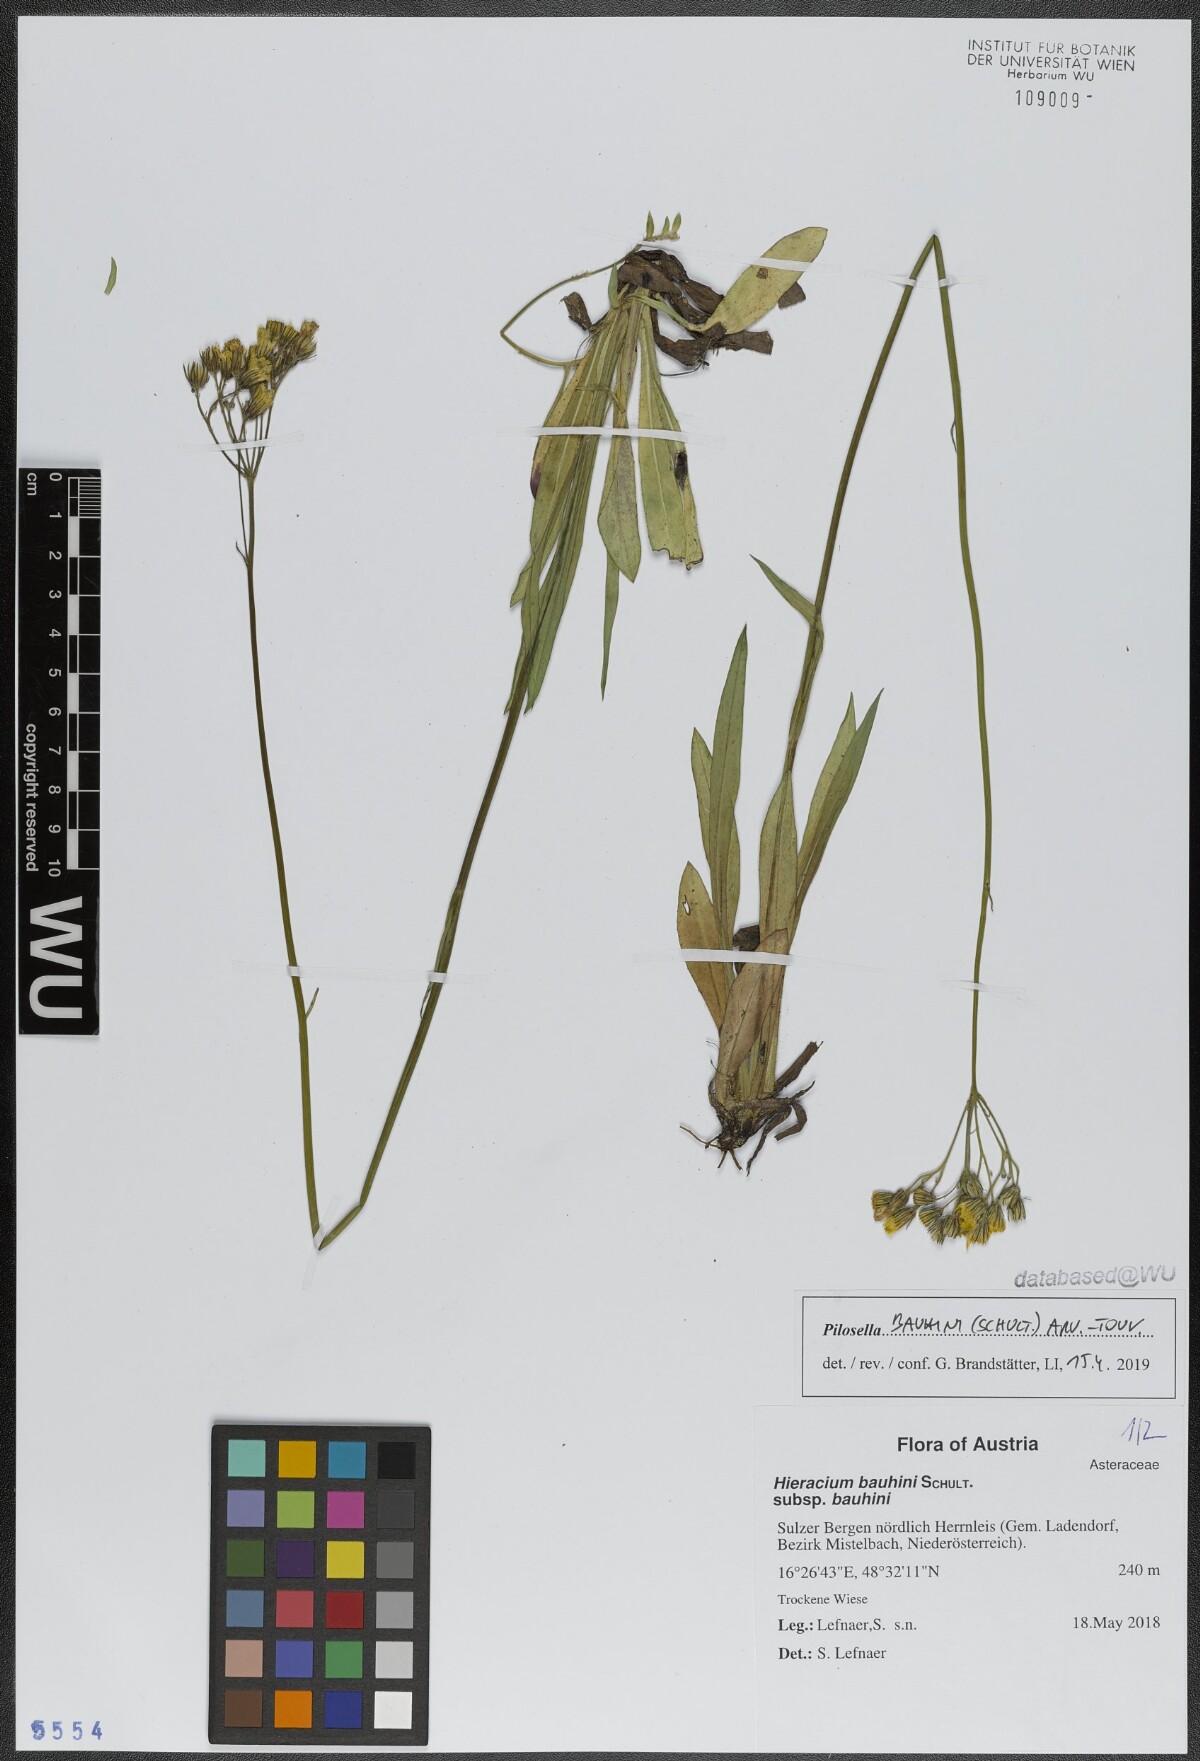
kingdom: Plantae
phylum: Tracheophyta
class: Magnoliopsida
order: Asterales
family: Asteraceae
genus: Pilosella
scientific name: Pilosella bauhini
